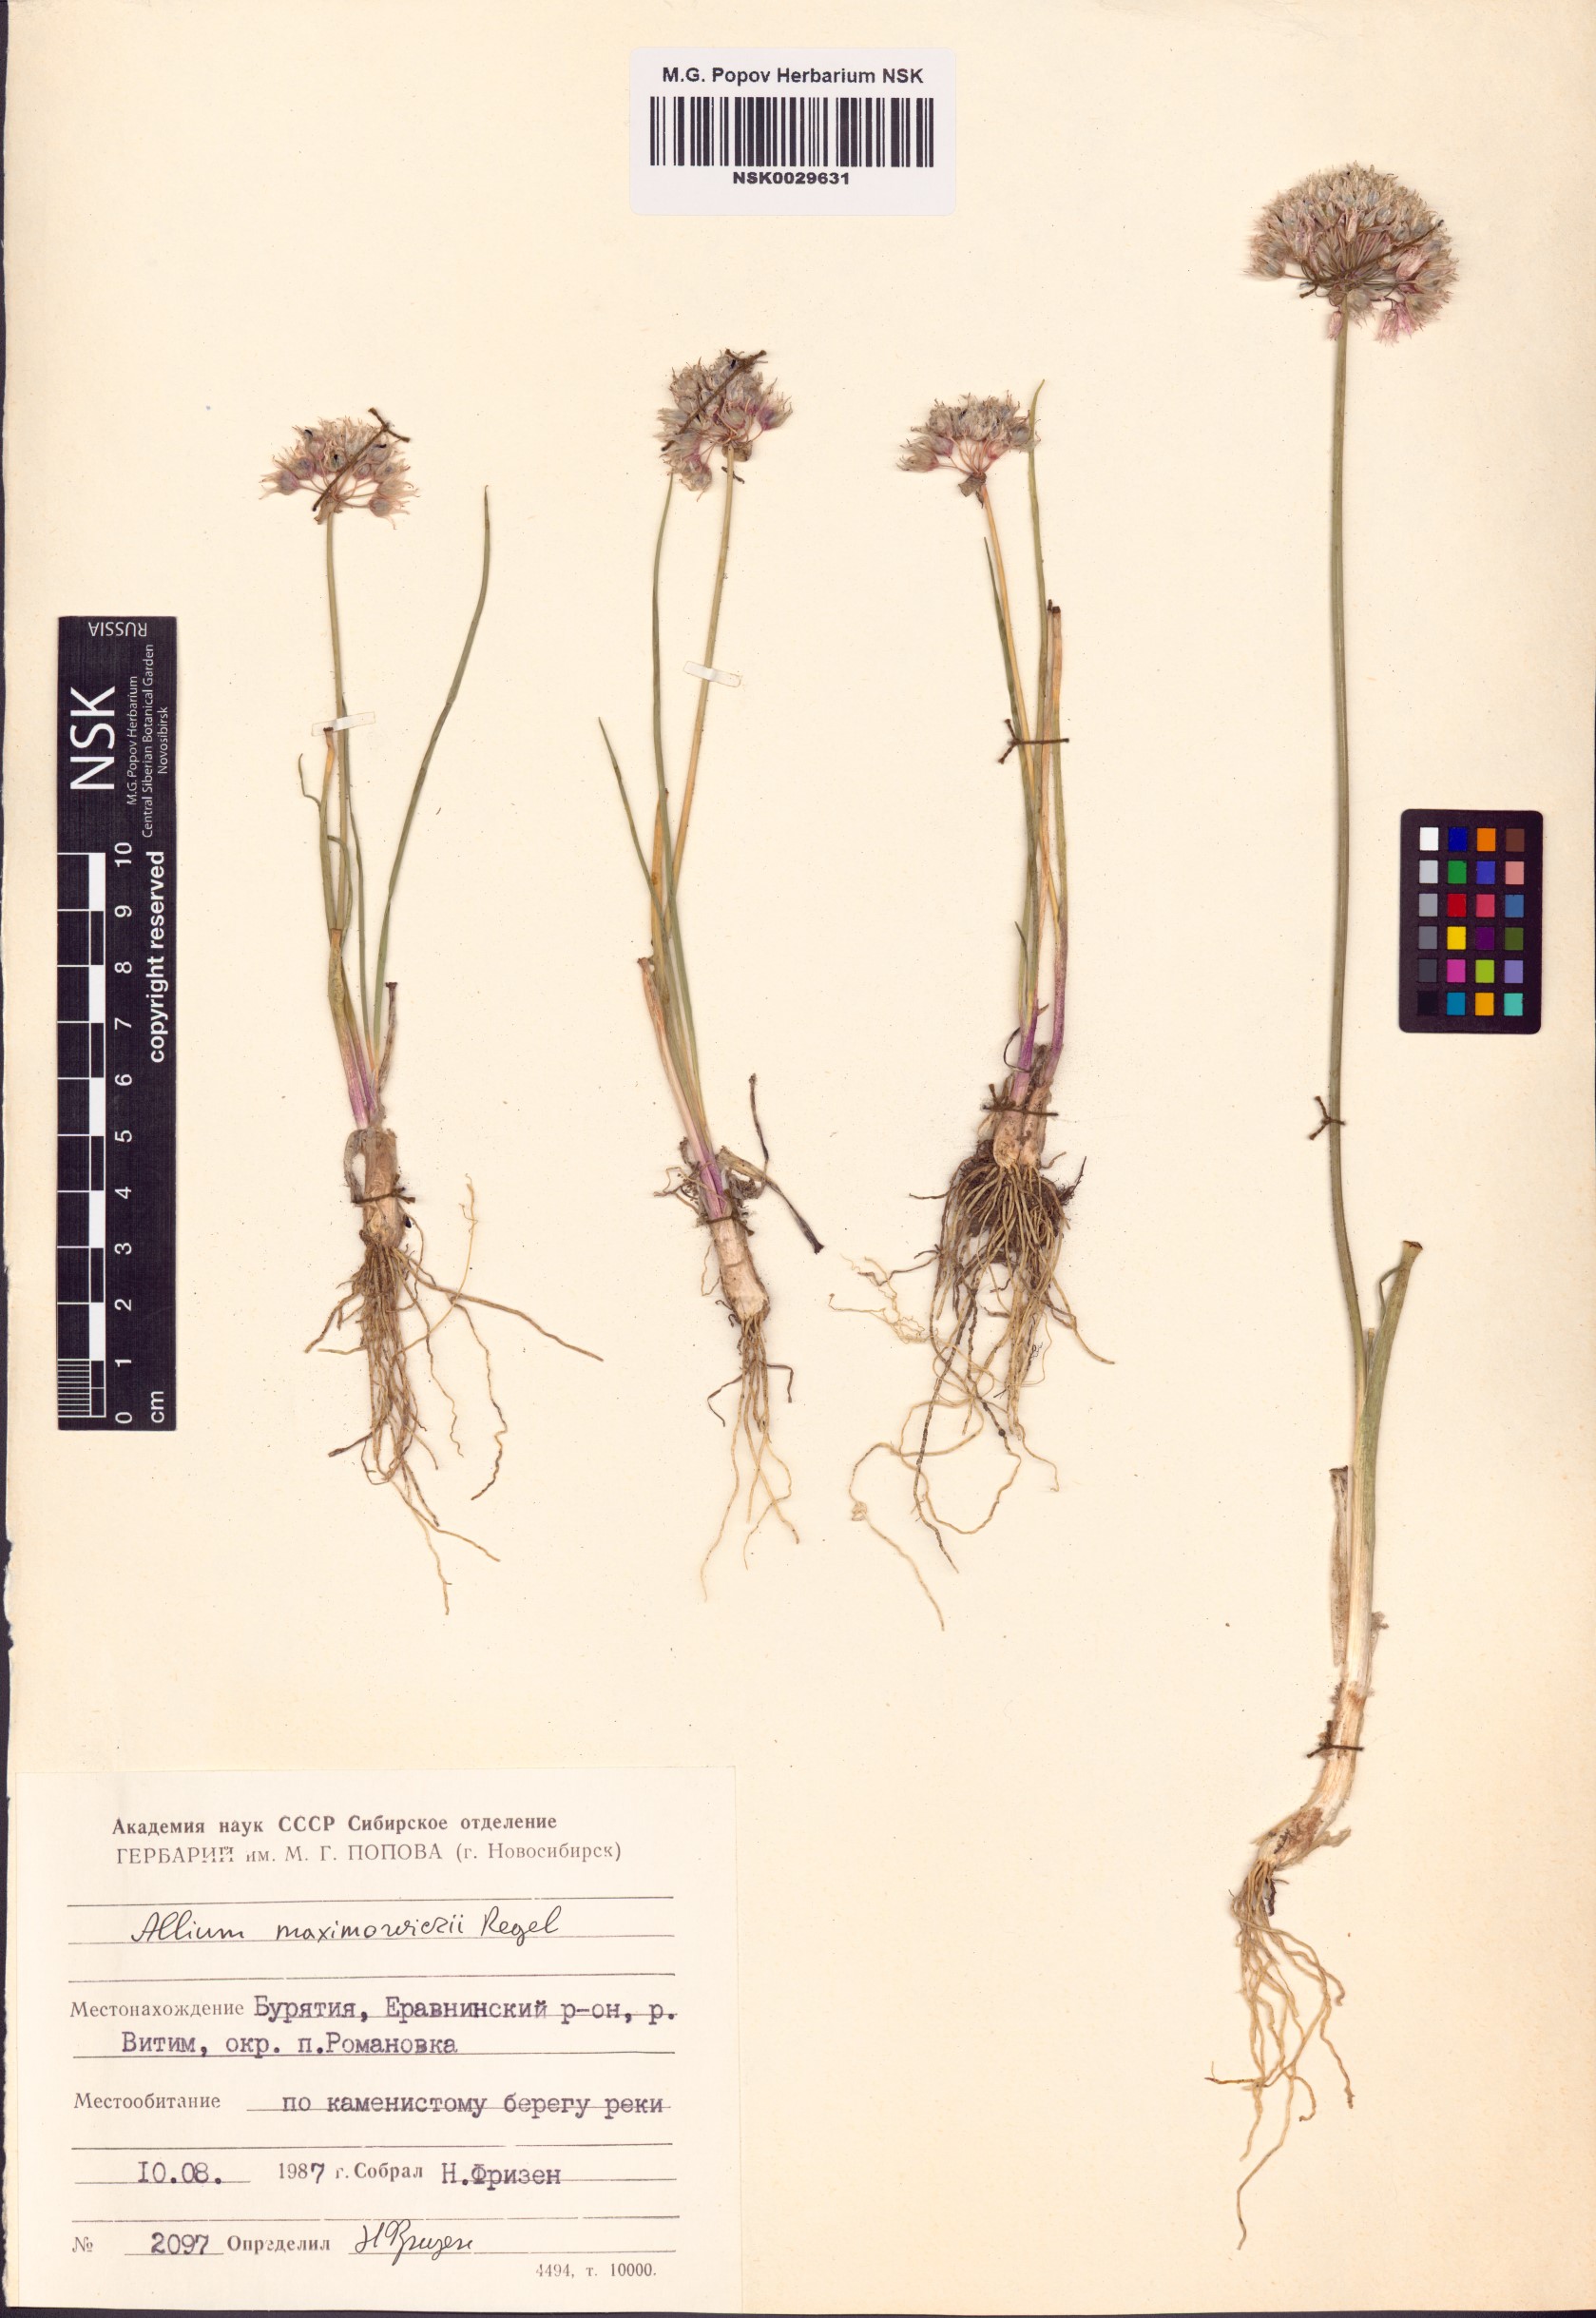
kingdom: Plantae
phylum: Tracheophyta
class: Liliopsida
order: Asparagales
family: Amaryllidaceae
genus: Allium
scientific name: Allium maximowiczii
